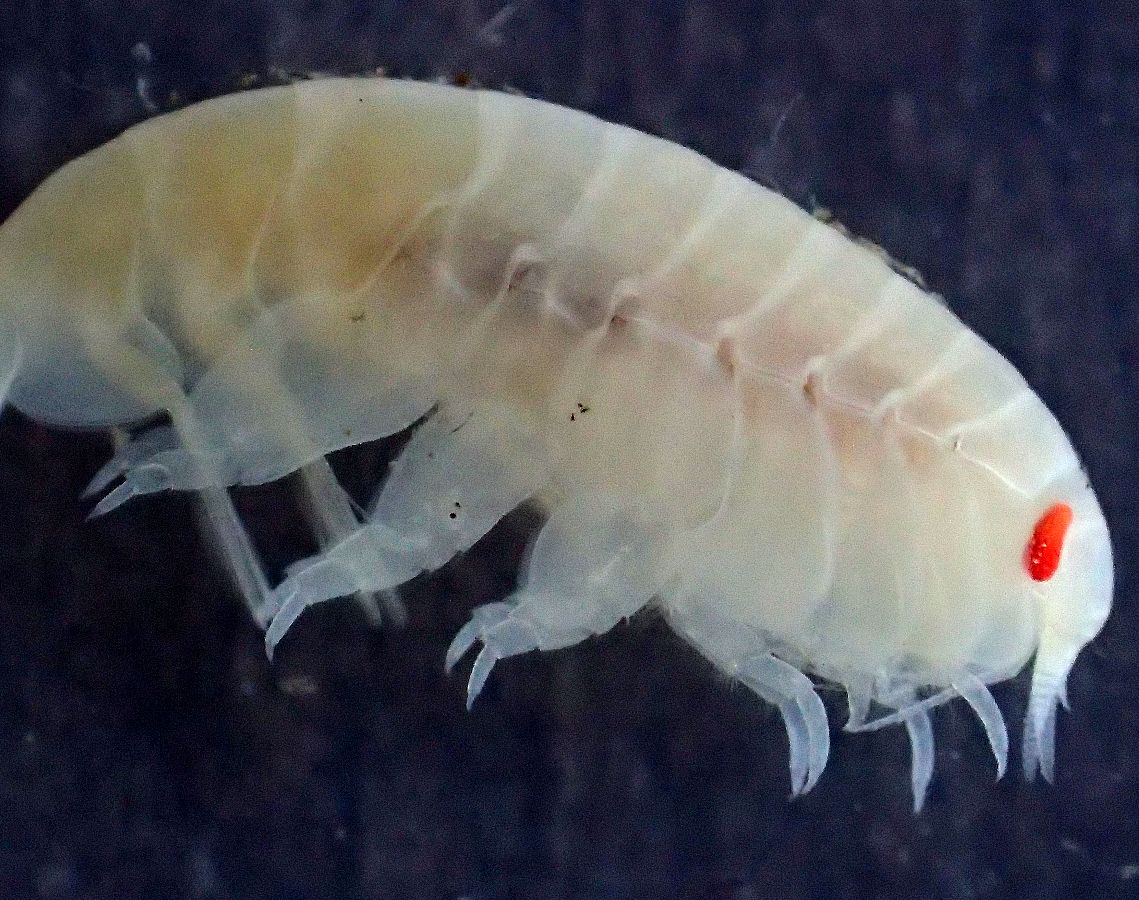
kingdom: Animalia
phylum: Arthropoda
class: Malacostraca
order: Amphipoda
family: Uristidae
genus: Menigrates
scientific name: Menigrates obtusifrons
